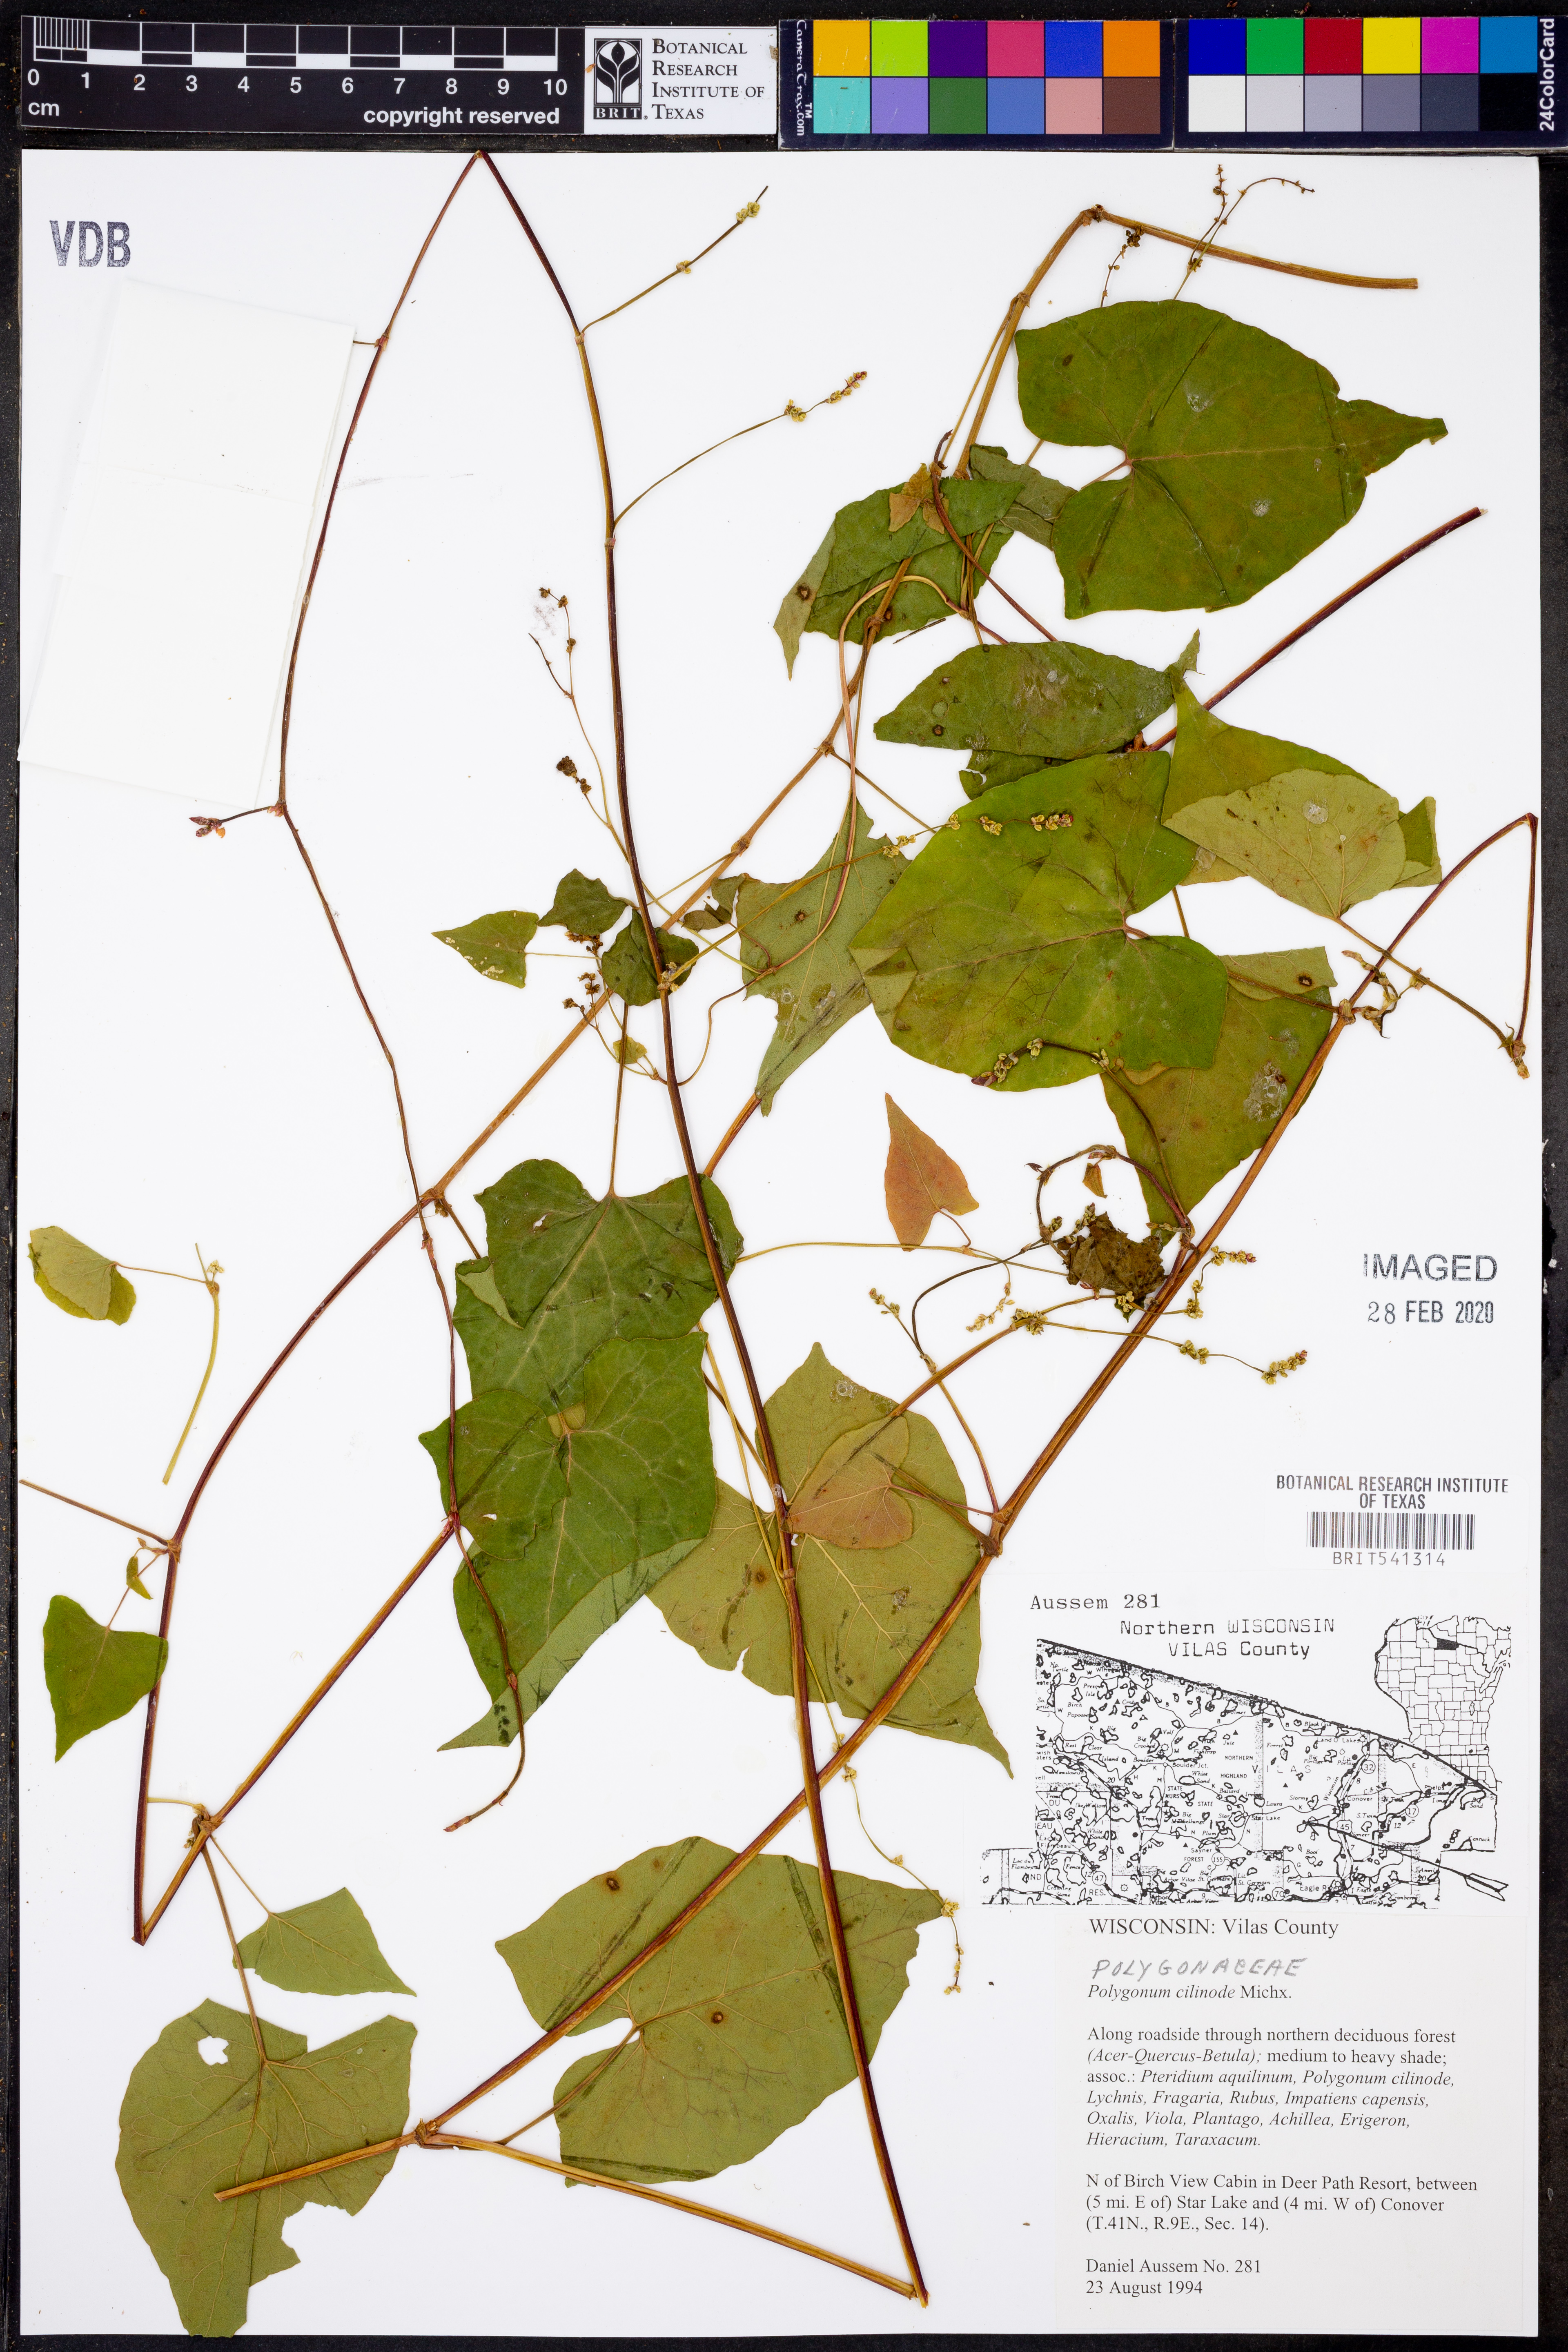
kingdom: Plantae
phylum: Tracheophyta
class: Magnoliopsida
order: Caryophyllales
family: Polygonaceae
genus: Parogonum
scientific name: Parogonum ciliinode
